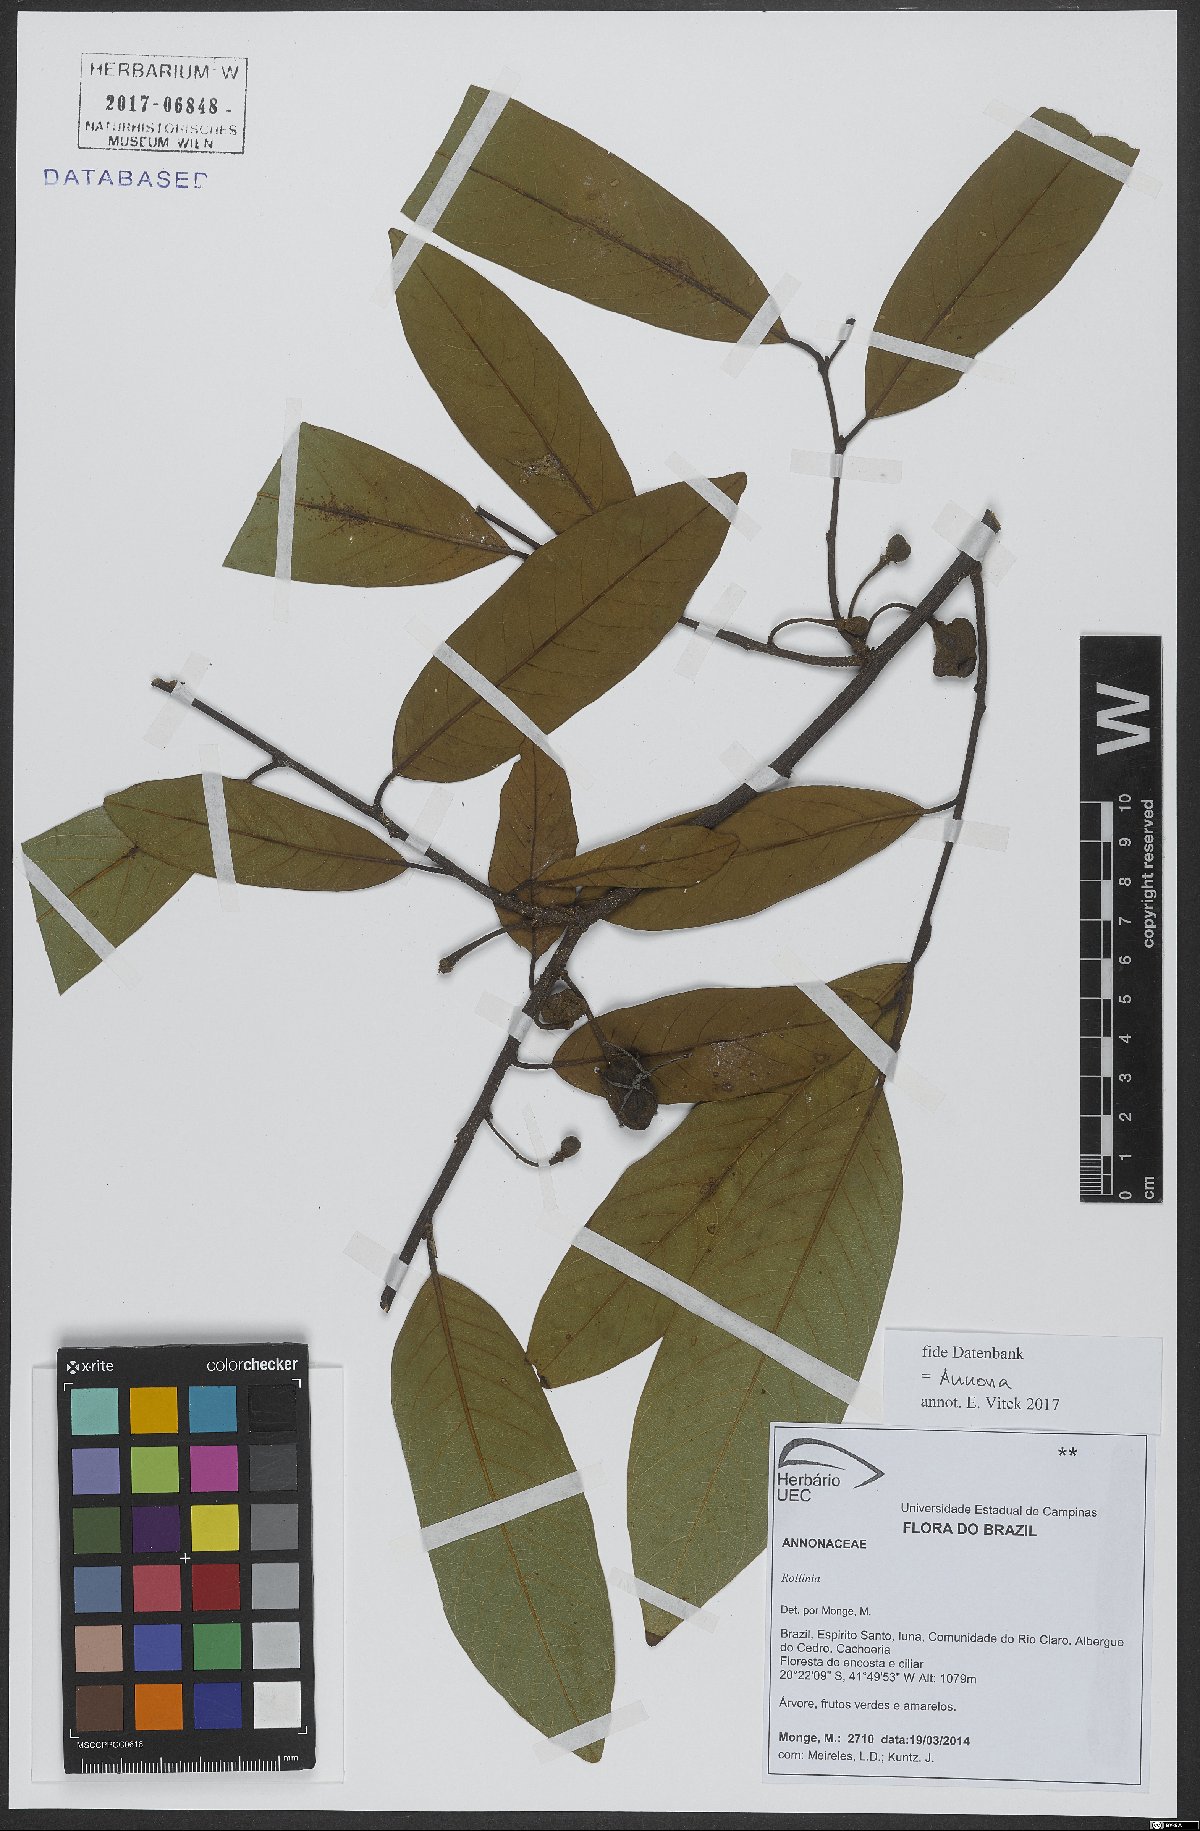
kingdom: Plantae
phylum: Tracheophyta
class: Magnoliopsida
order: Magnoliales
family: Annonaceae
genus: Annona
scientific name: Annona
